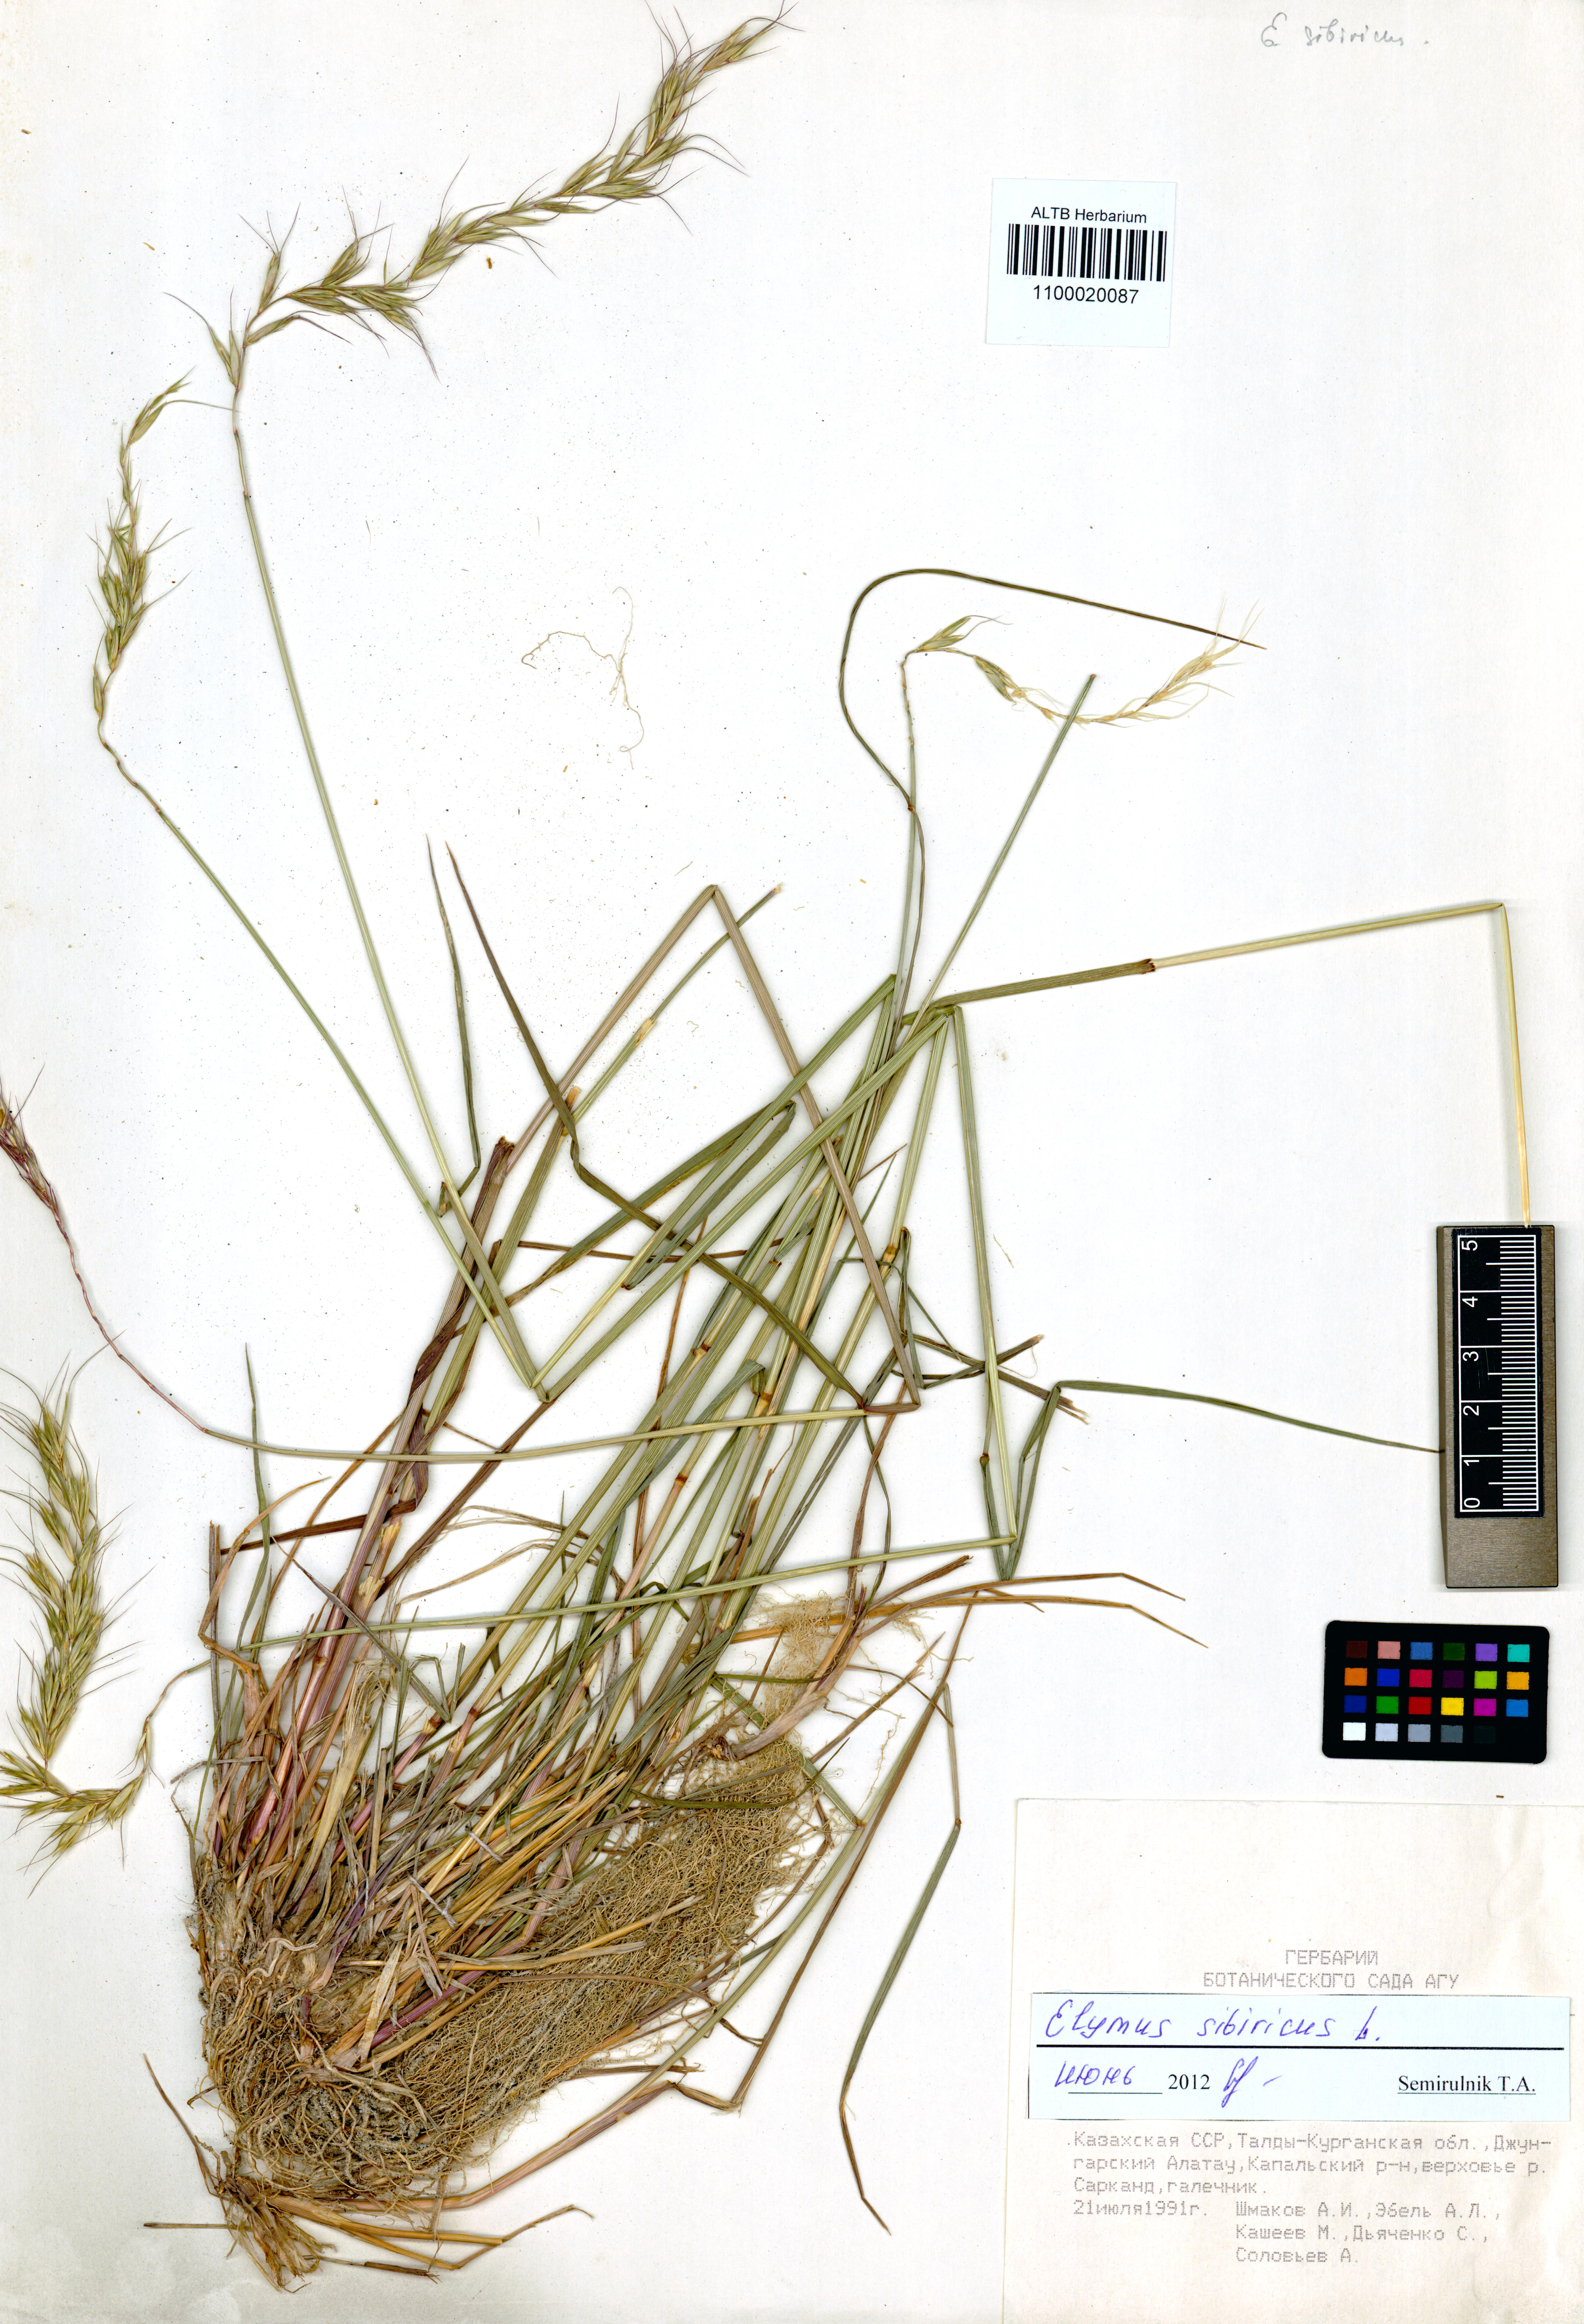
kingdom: Plantae
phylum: Tracheophyta
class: Liliopsida
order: Poales
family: Poaceae
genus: Elymus
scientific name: Elymus sibiricus
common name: Siberian wildrye
